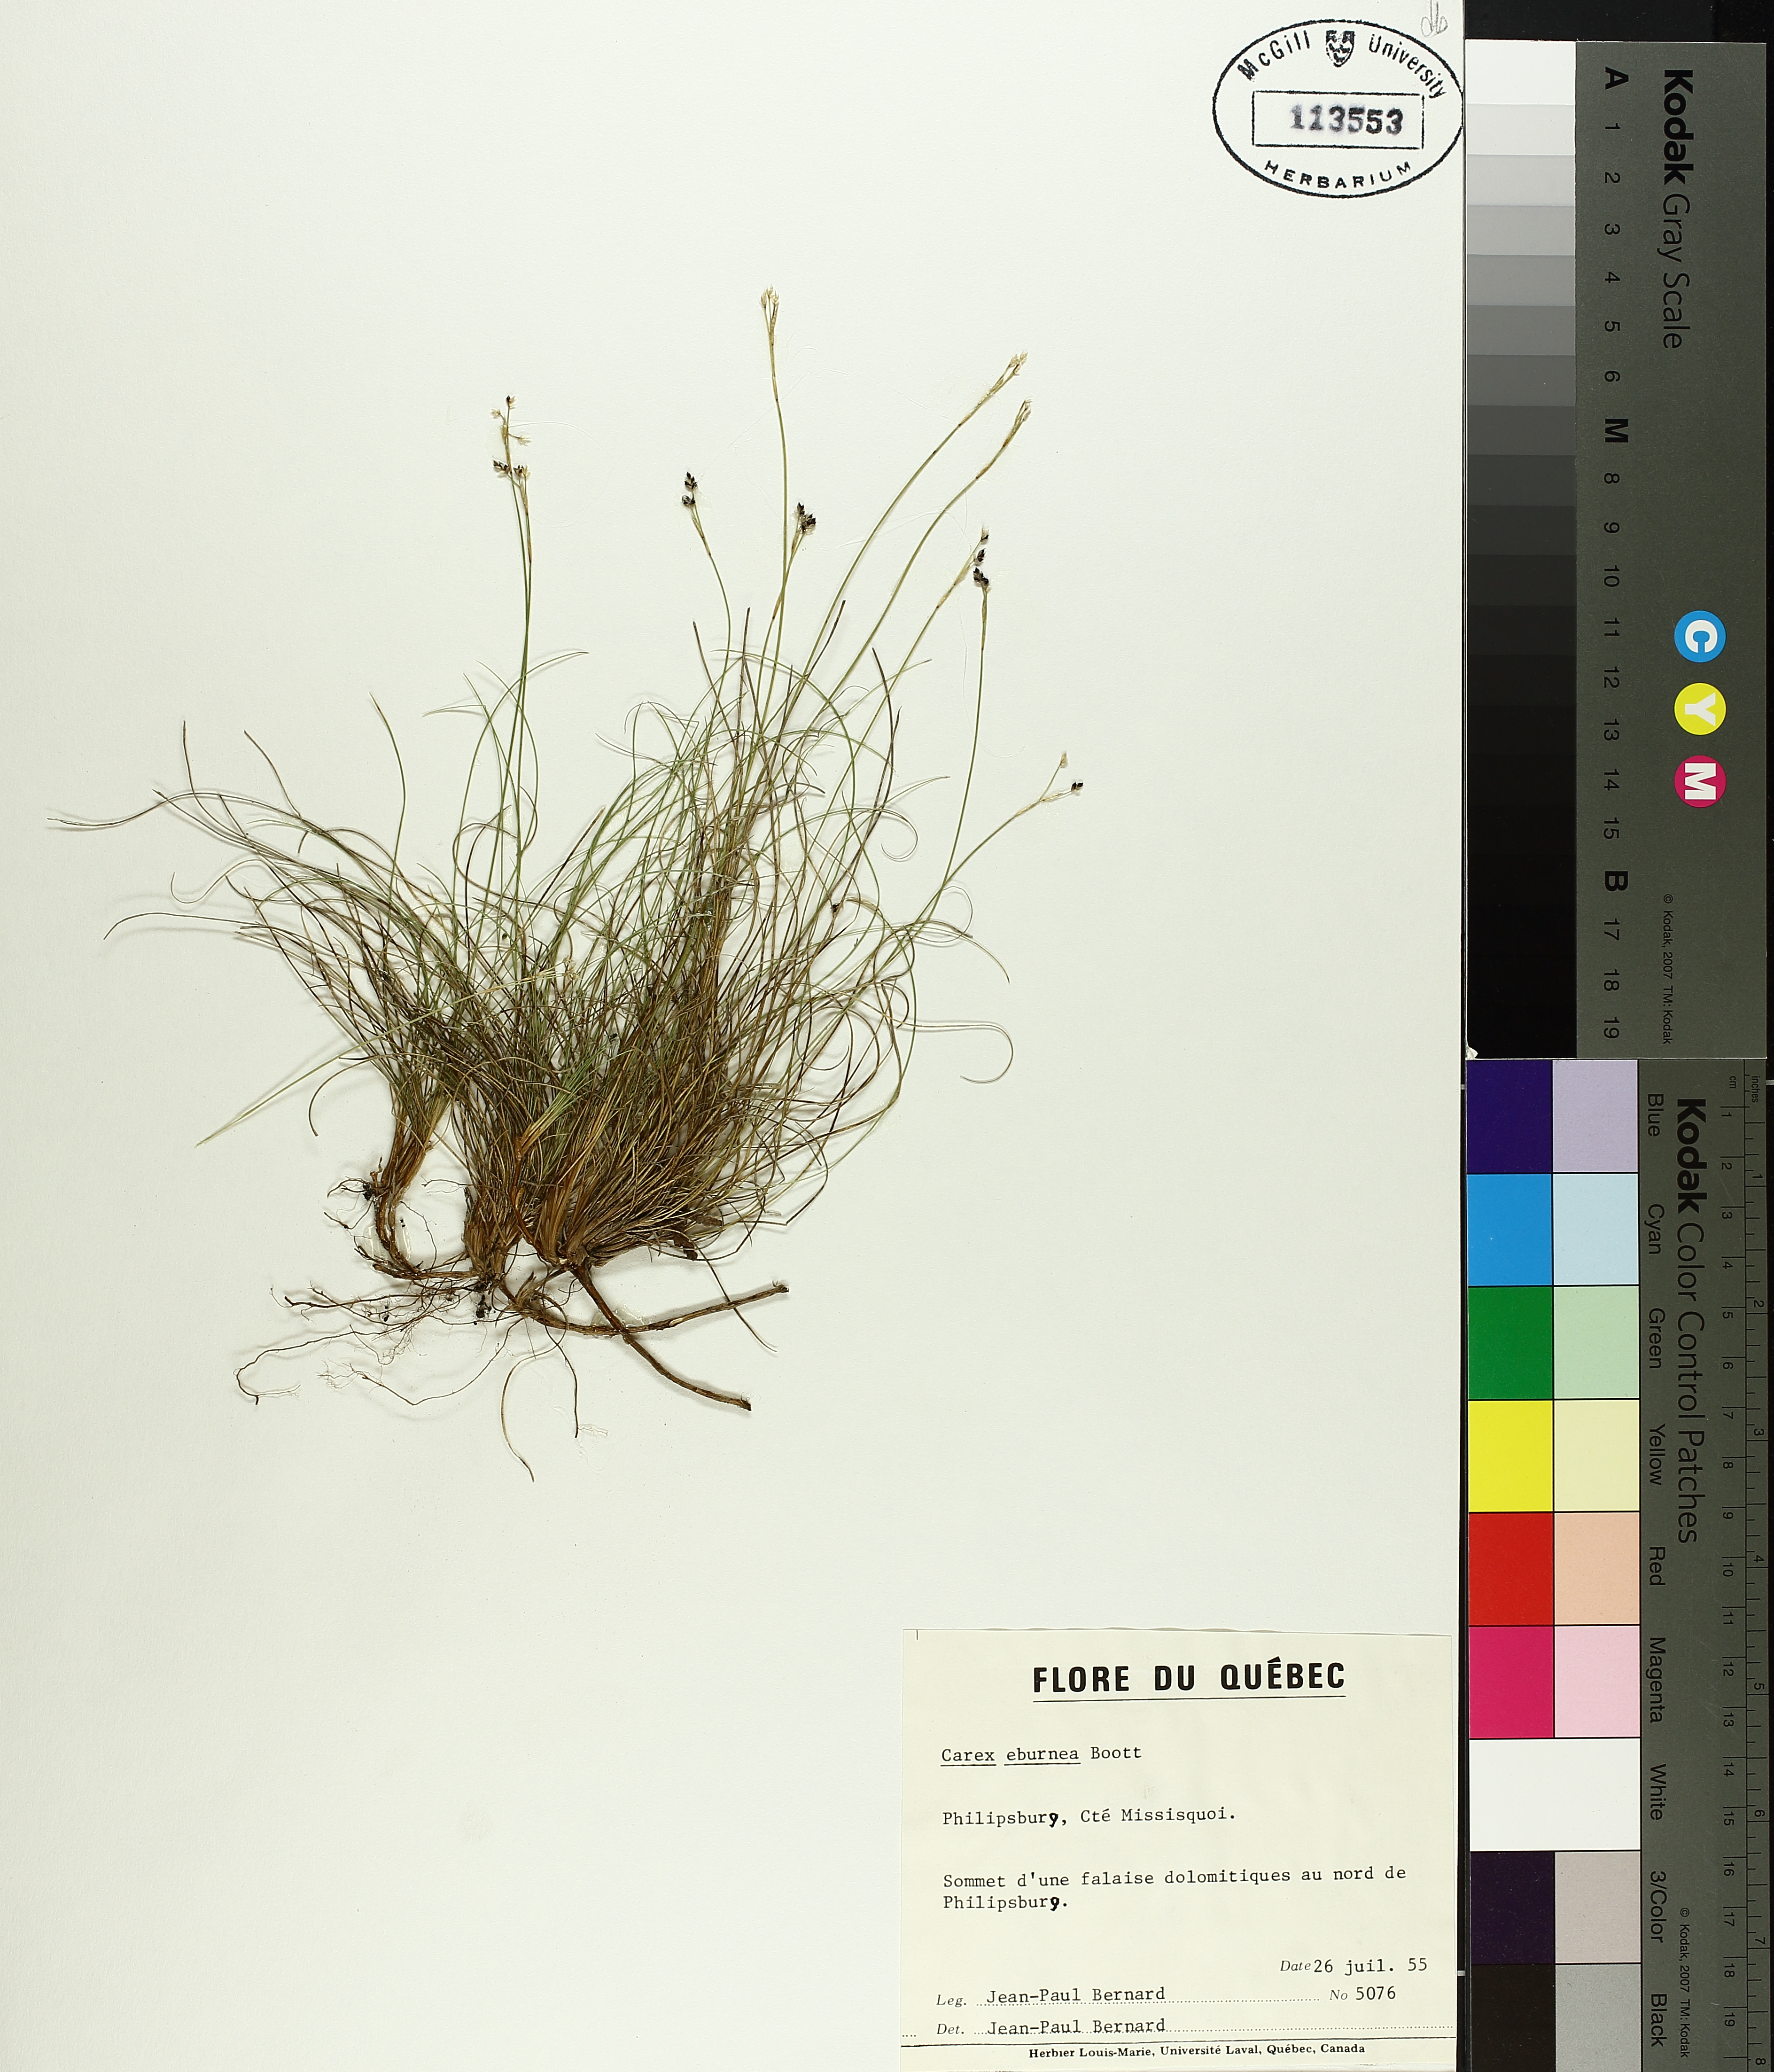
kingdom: Plantae
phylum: Tracheophyta
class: Liliopsida
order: Poales
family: Cyperaceae
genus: Carex
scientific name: Carex eburnea
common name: Bristle-leaved sedge
